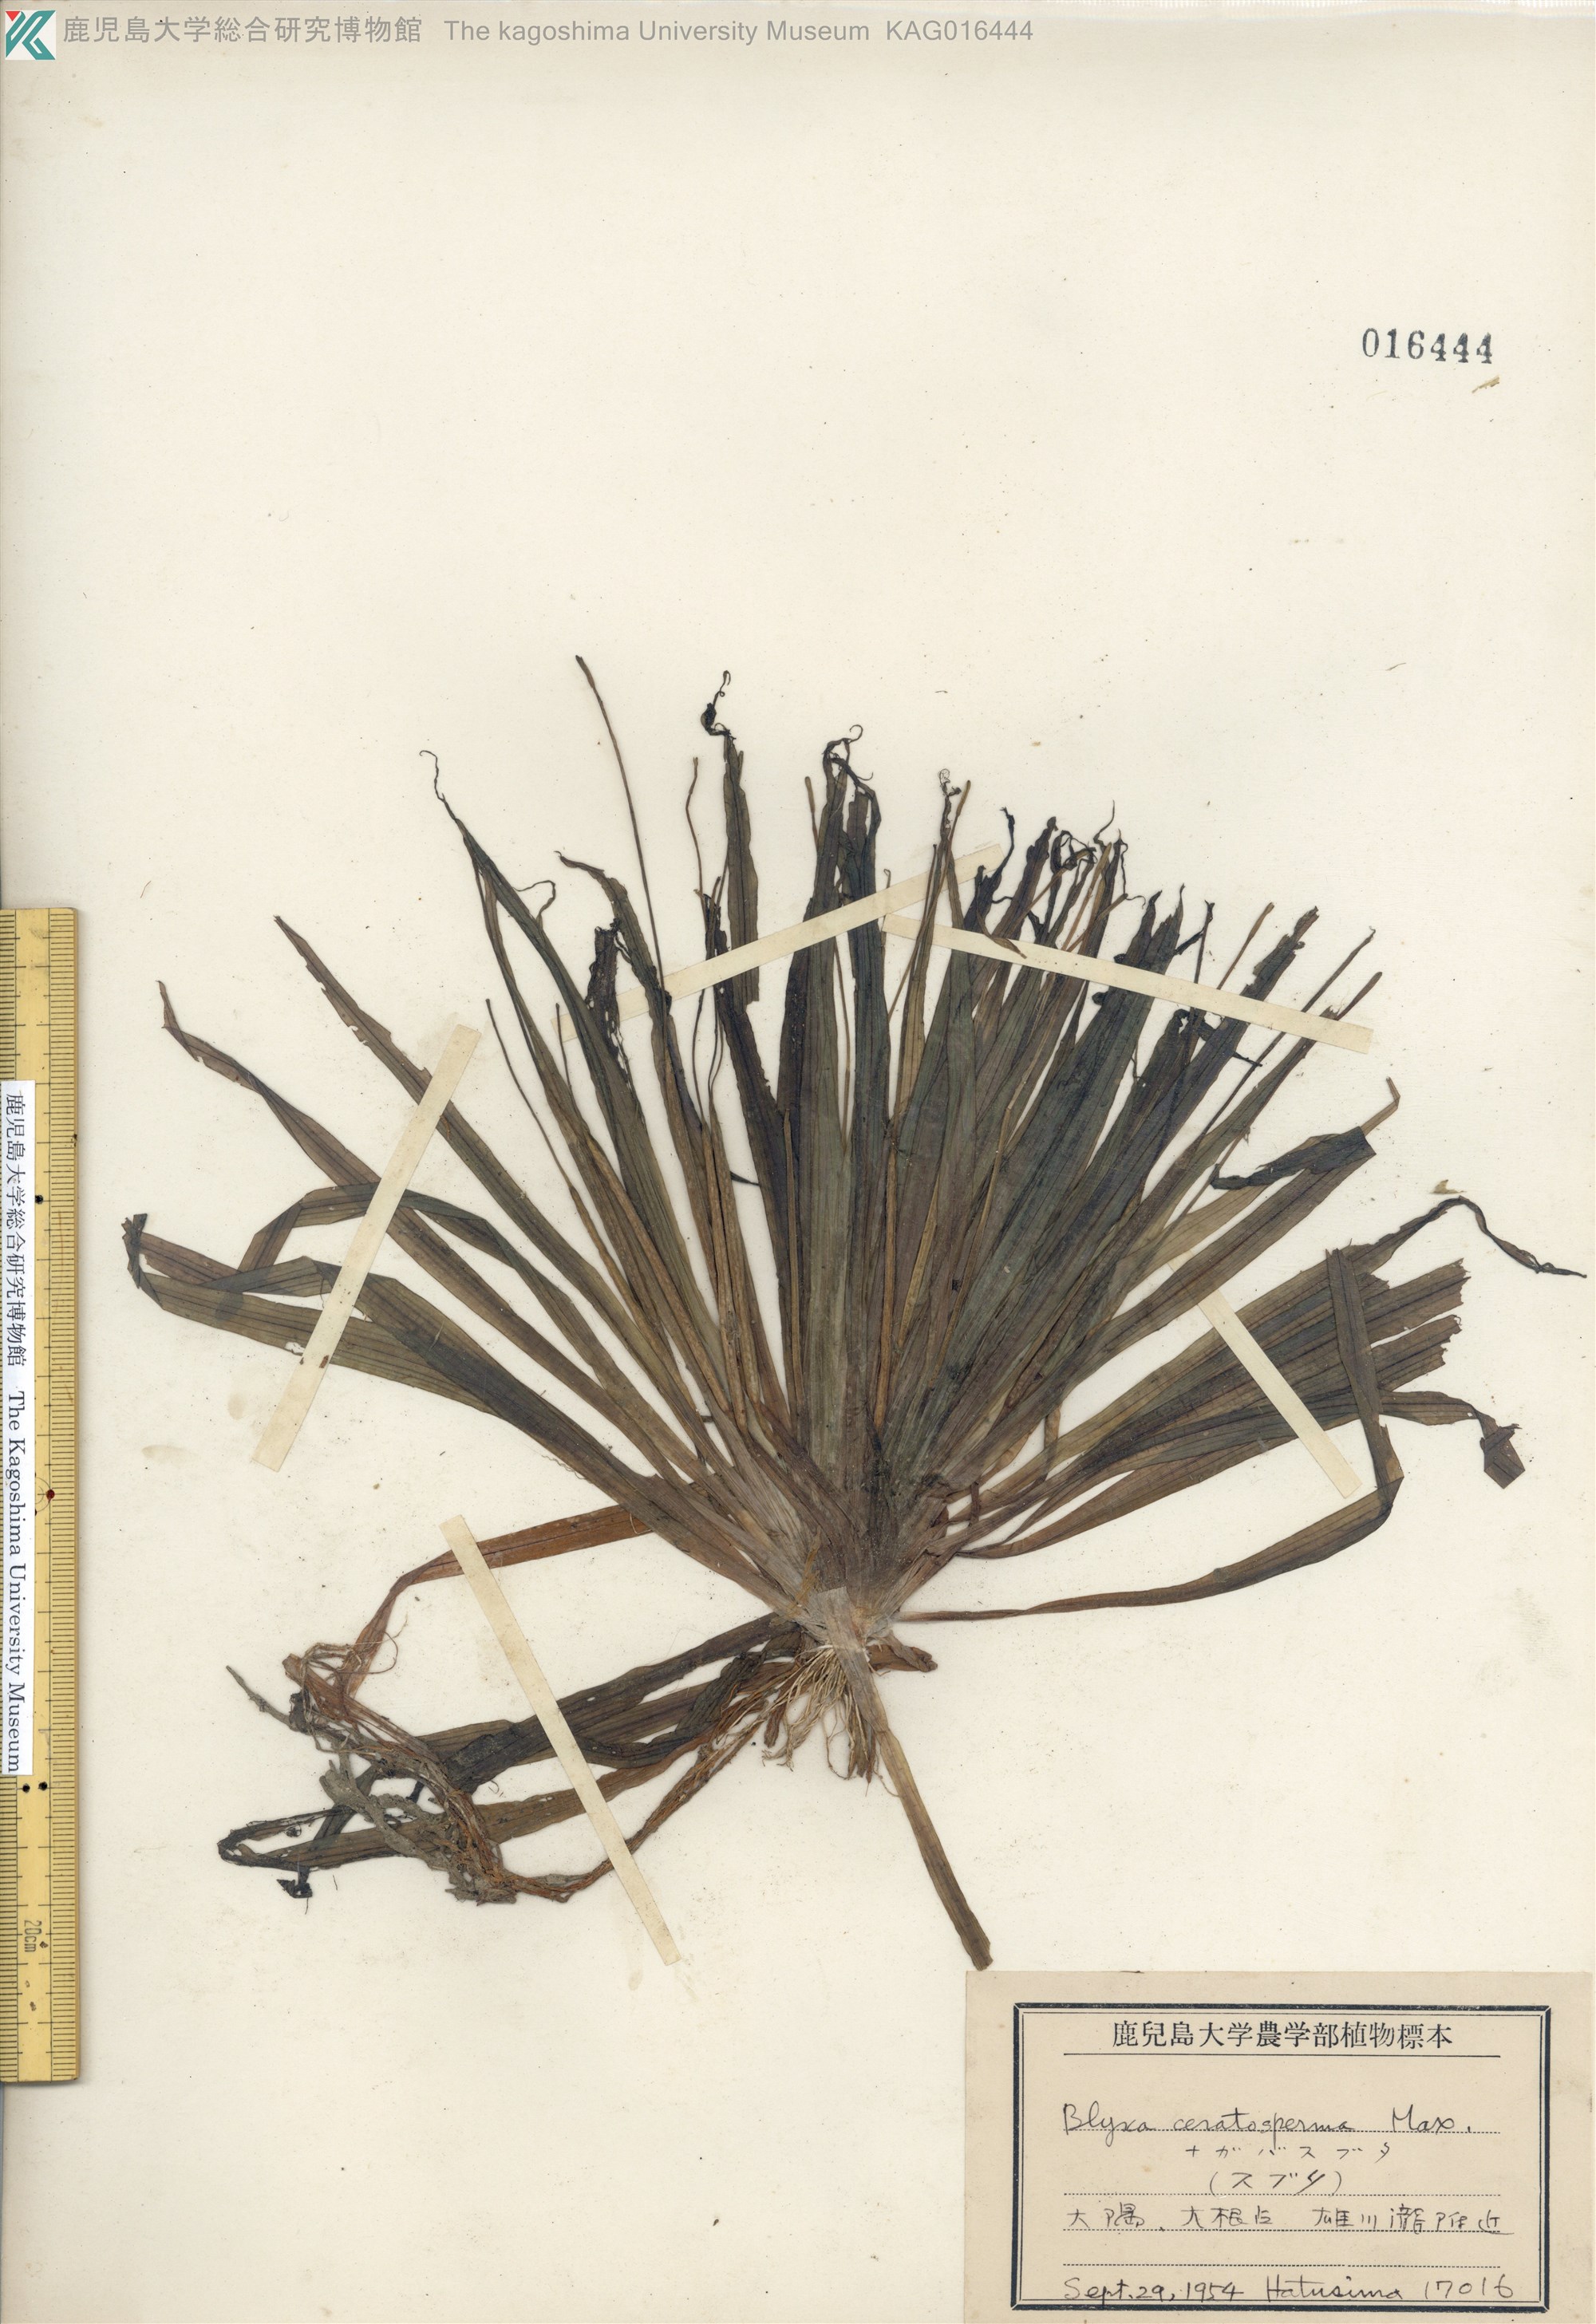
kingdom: Plantae
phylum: Tracheophyta
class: Liliopsida
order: Alismatales
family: Hydrocharitaceae
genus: Blyxa
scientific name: Blyxa echinosperma
